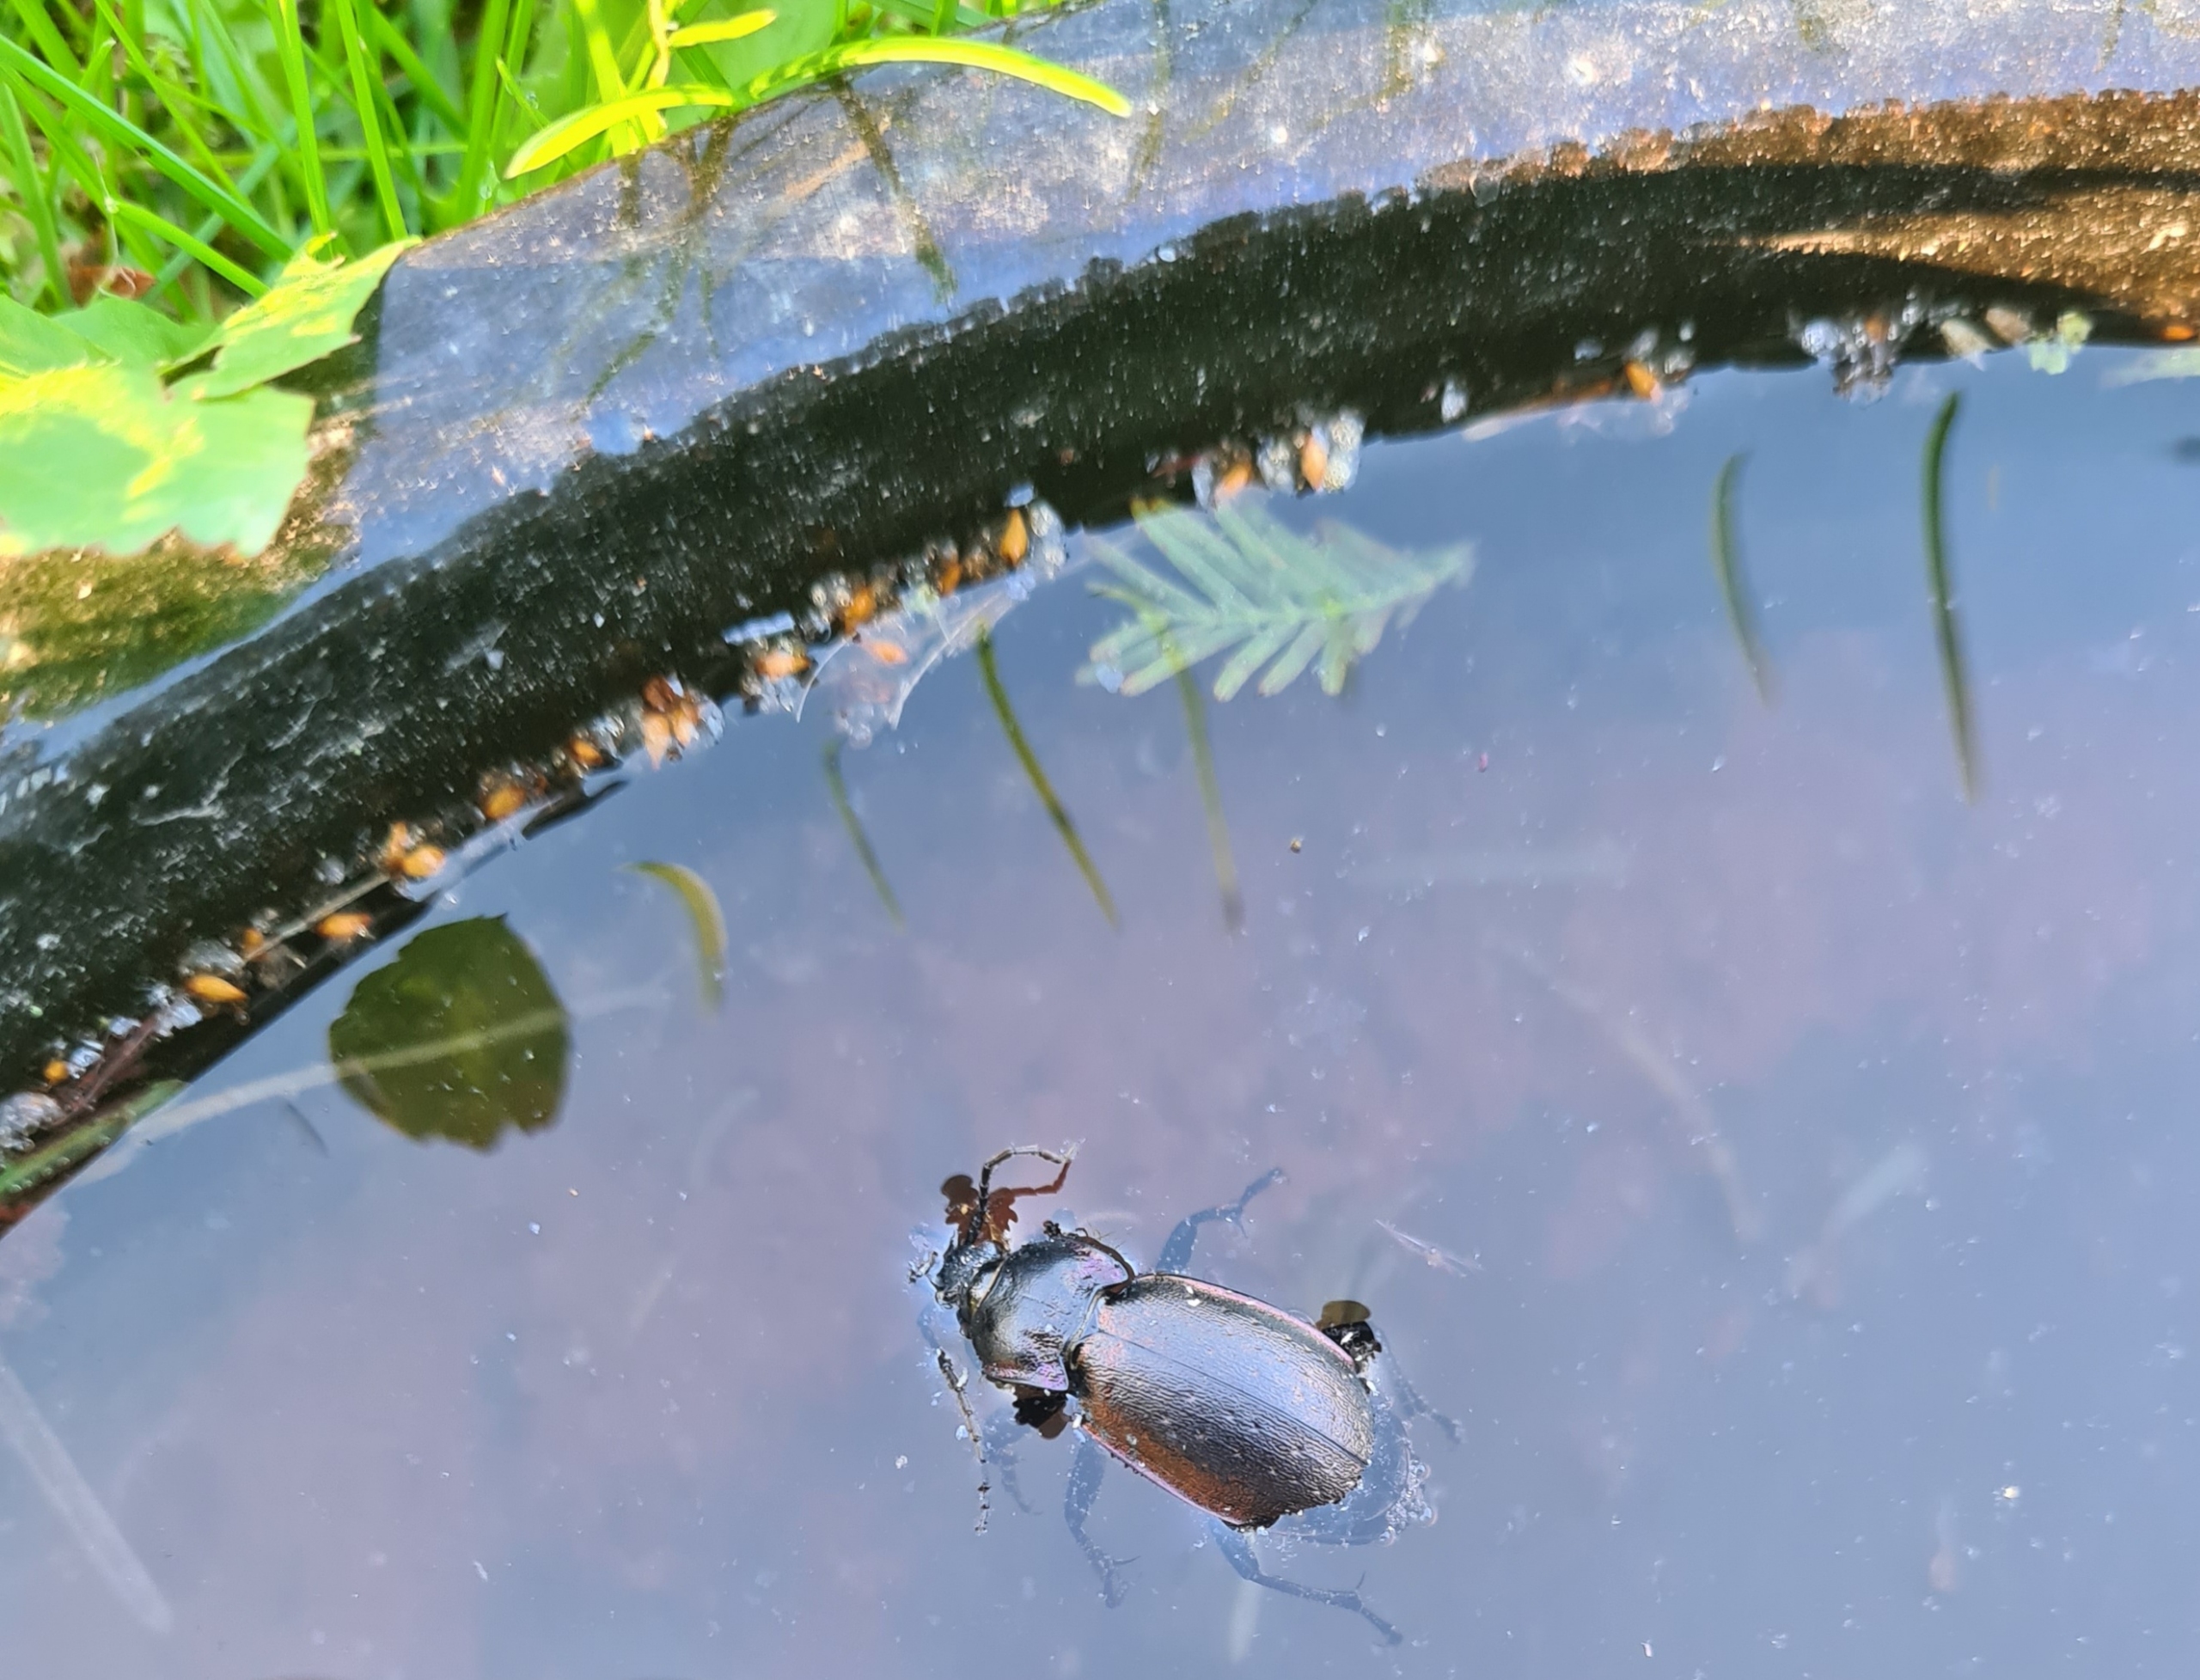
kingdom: Animalia
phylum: Arthropoda
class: Insecta
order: Coleoptera
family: Carabidae
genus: Carabus
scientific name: Carabus nemoralis
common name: Kratløber
